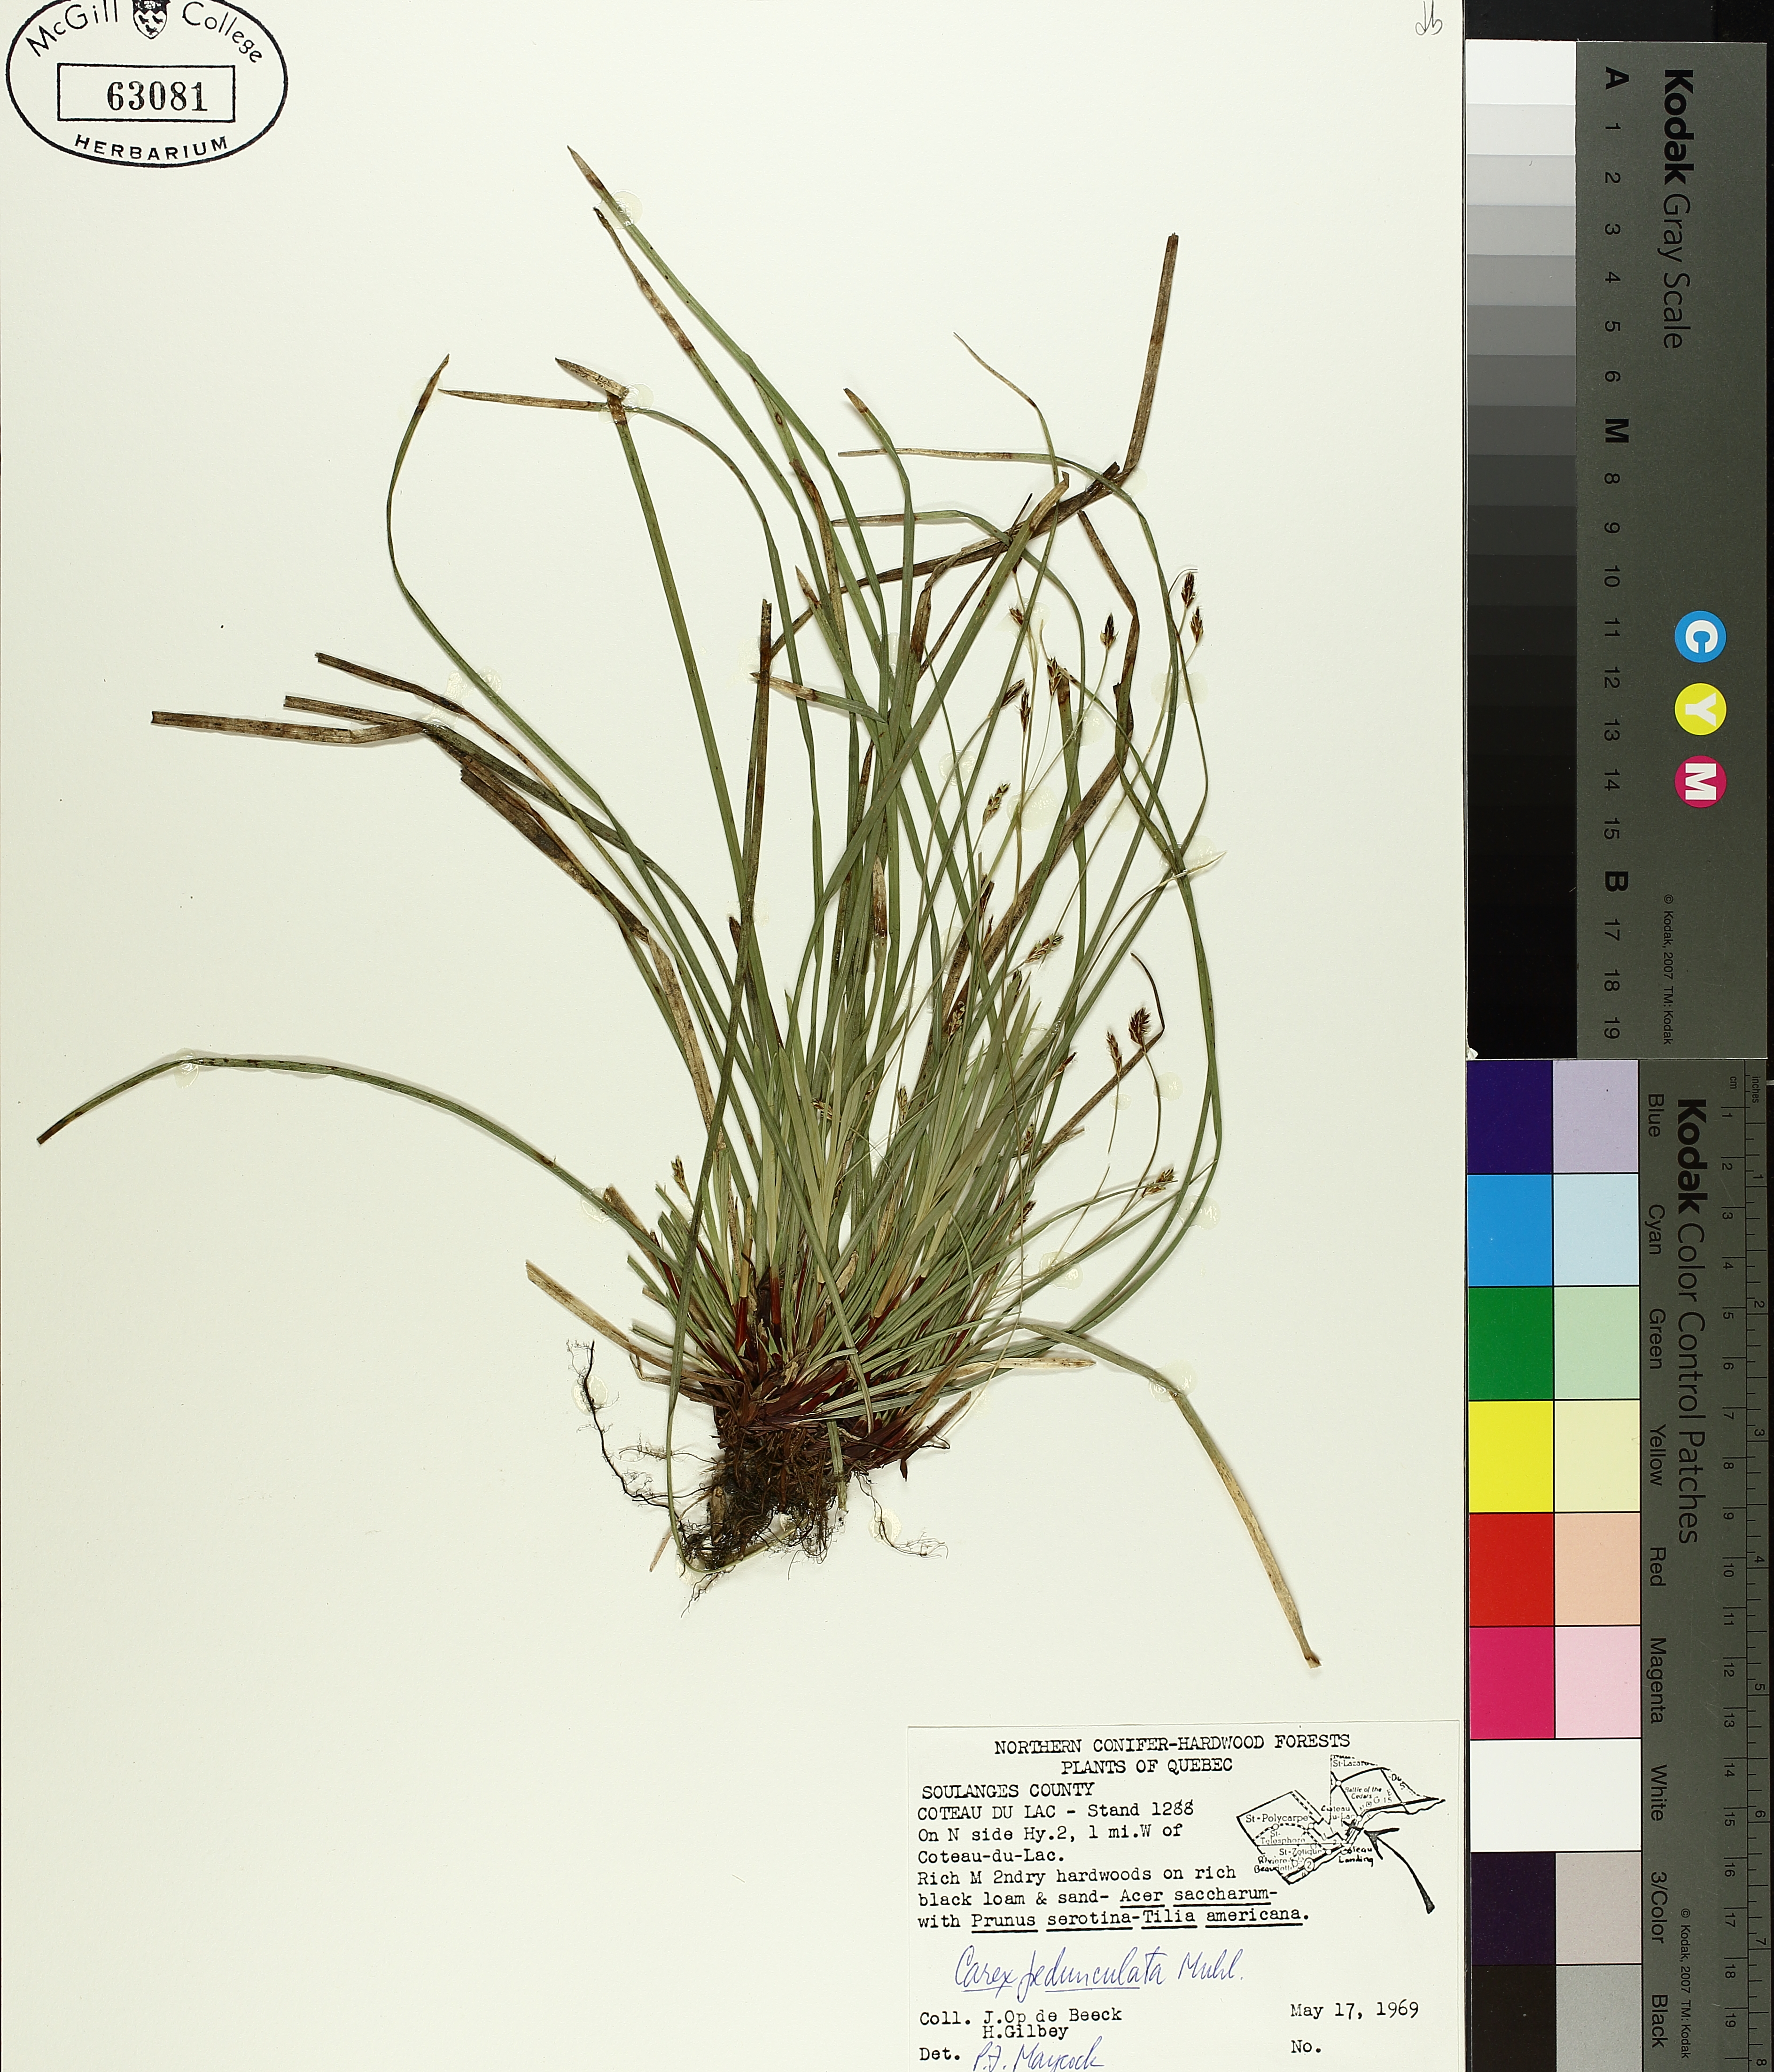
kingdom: Plantae
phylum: Tracheophyta
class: Liliopsida
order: Poales
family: Cyperaceae
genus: Carex
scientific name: Carex pedunculata
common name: Pedunculate sedge
